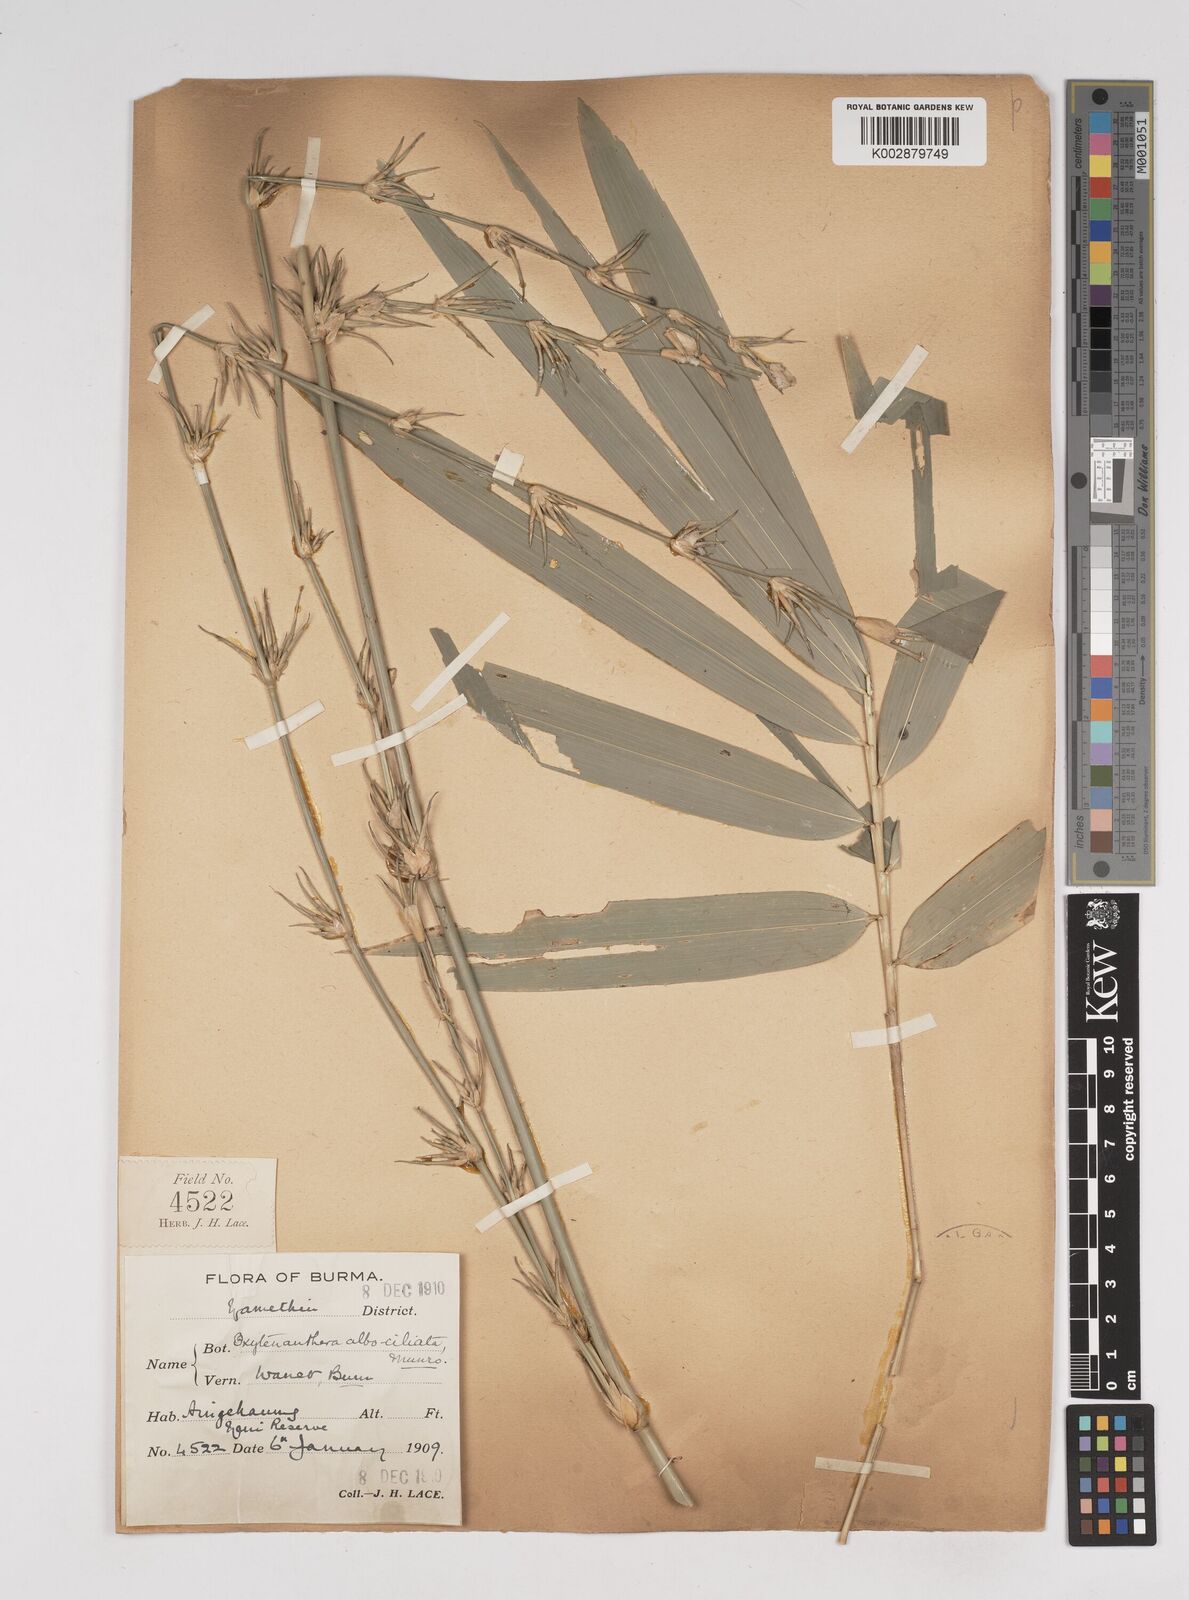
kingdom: Plantae
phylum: Tracheophyta
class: Liliopsida
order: Poales
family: Poaceae
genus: Gigantochloa
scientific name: Gigantochloa albociliata
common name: White-fringe gigantochloa
